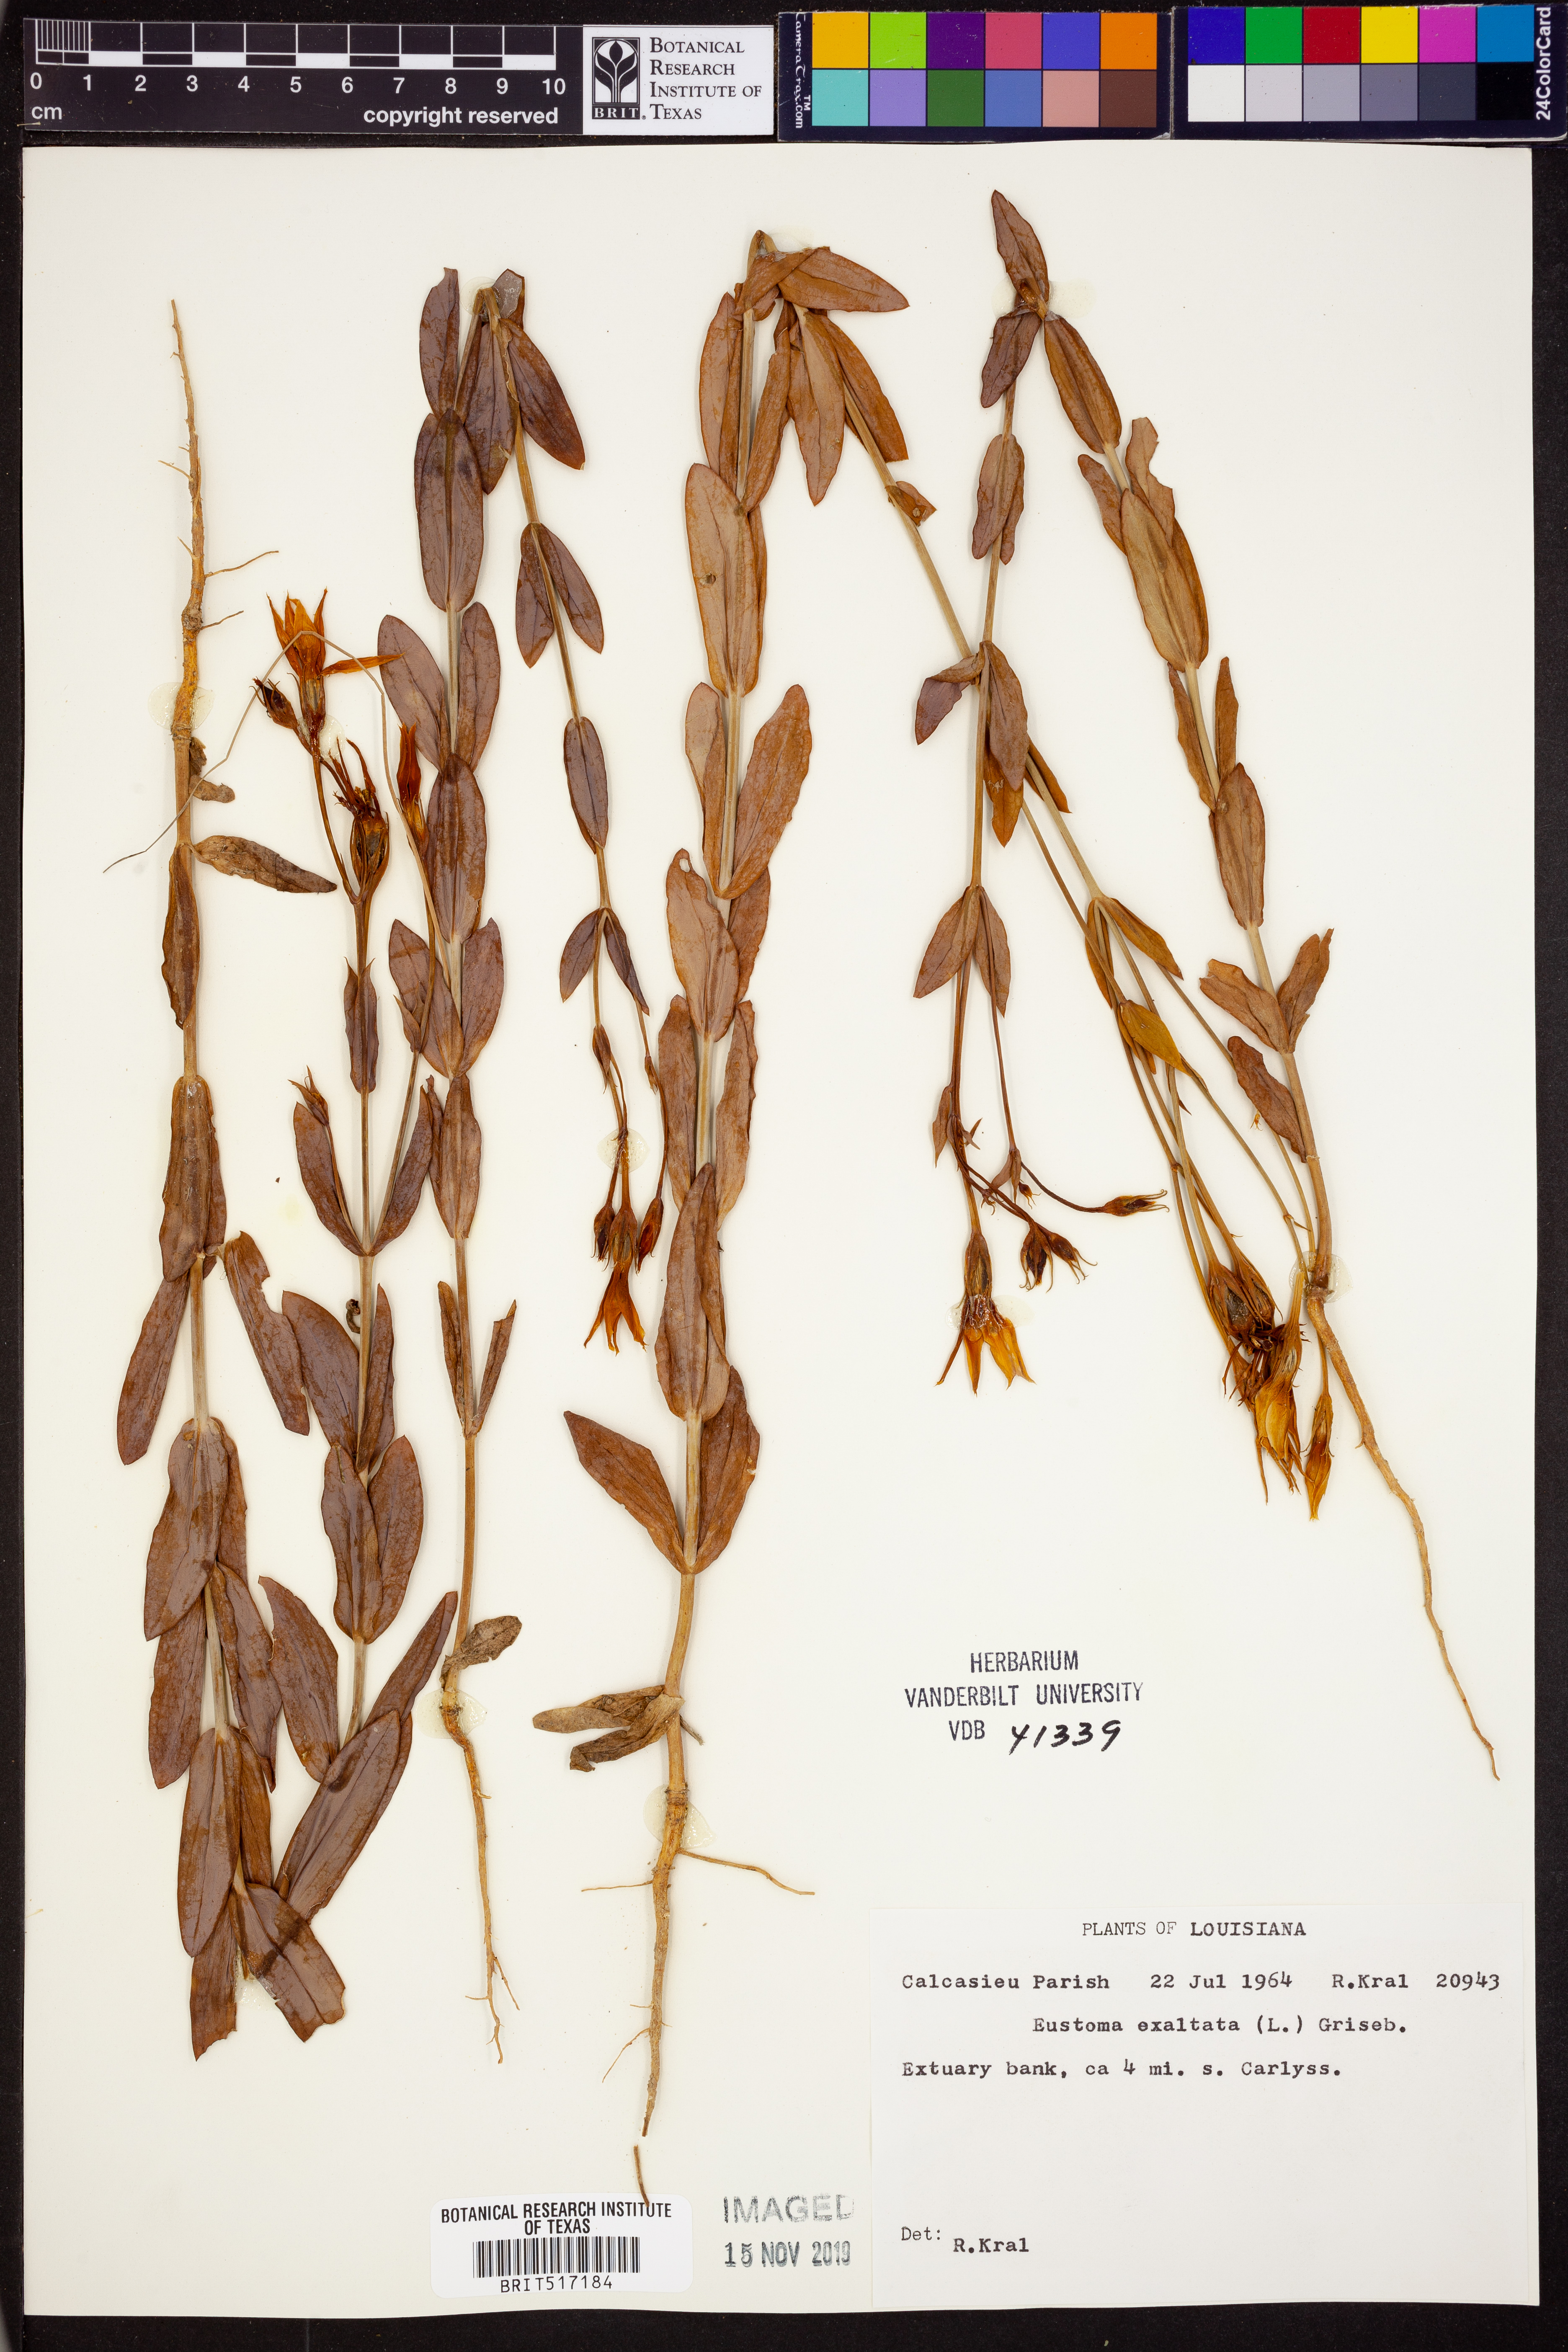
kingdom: Plantae
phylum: Tracheophyta
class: Magnoliopsida
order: Gentianales
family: Gentianaceae
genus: Eustoma
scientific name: Eustoma exaltatum
